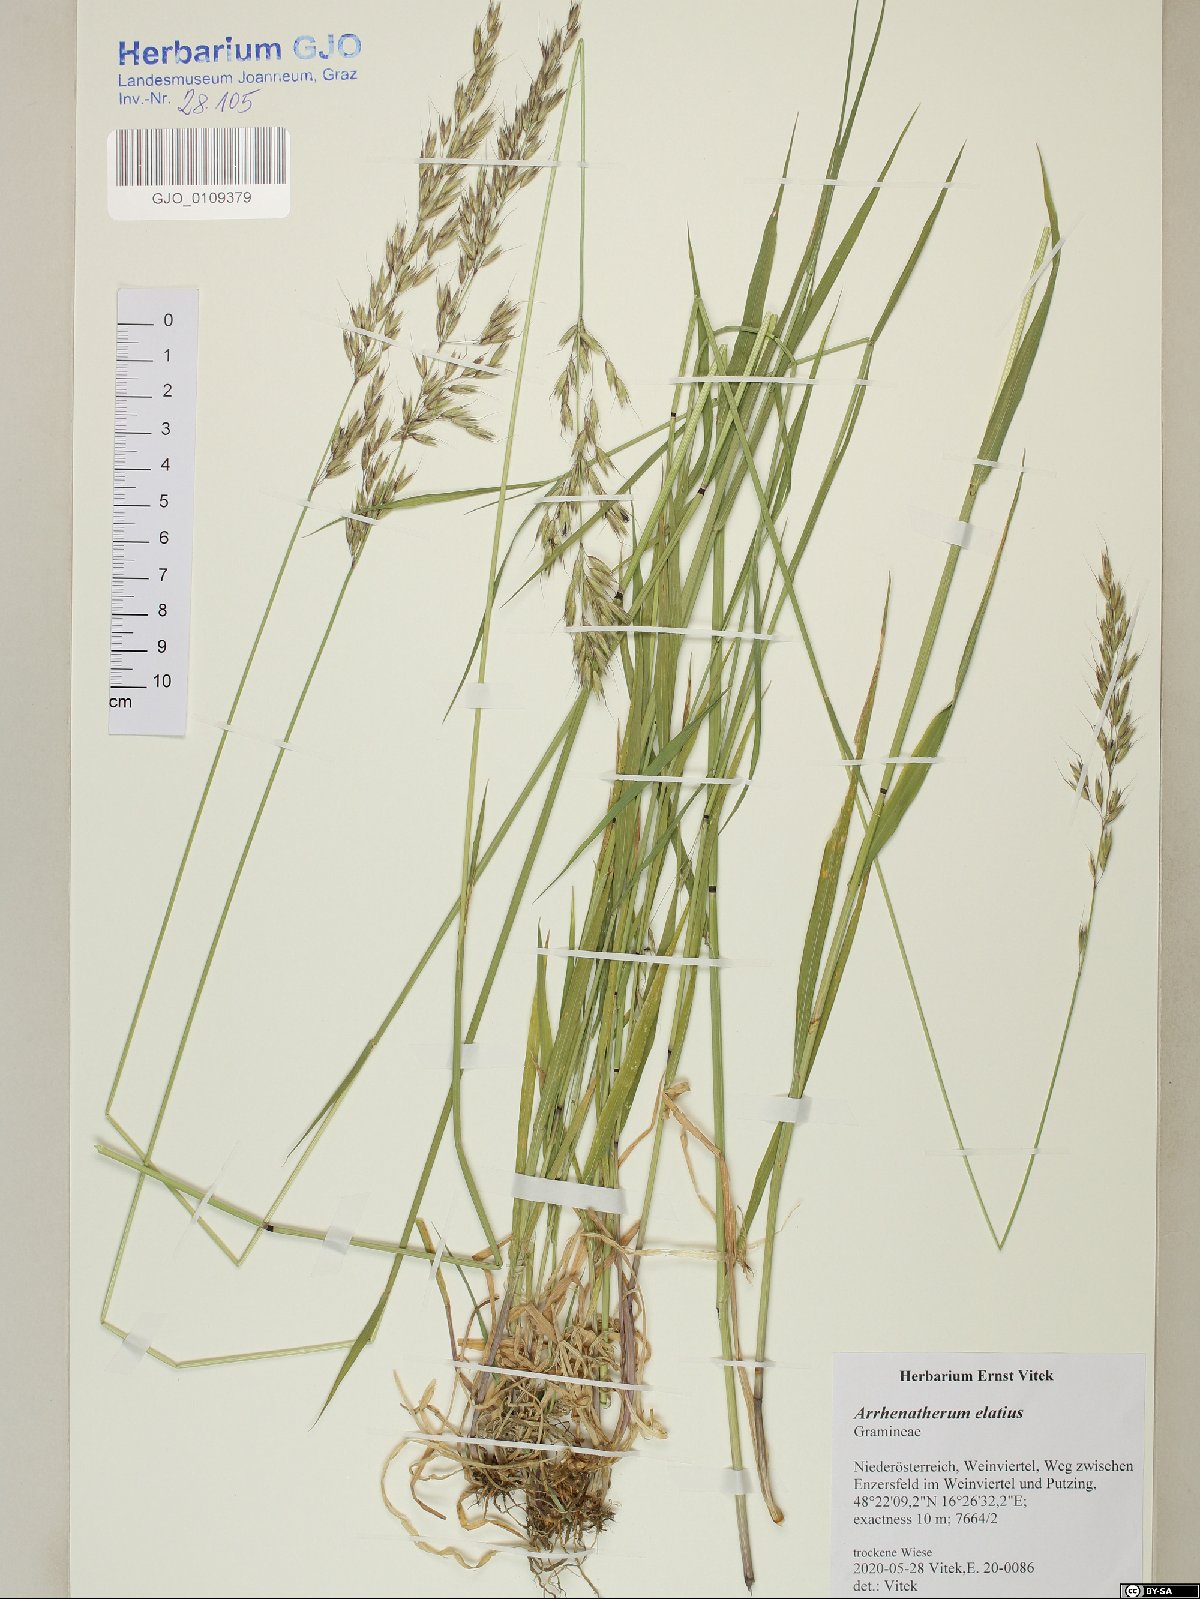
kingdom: Plantae
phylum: Tracheophyta
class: Liliopsida
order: Poales
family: Poaceae
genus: Arrhenatherum
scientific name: Arrhenatherum elatius
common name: Tall oatgrass
